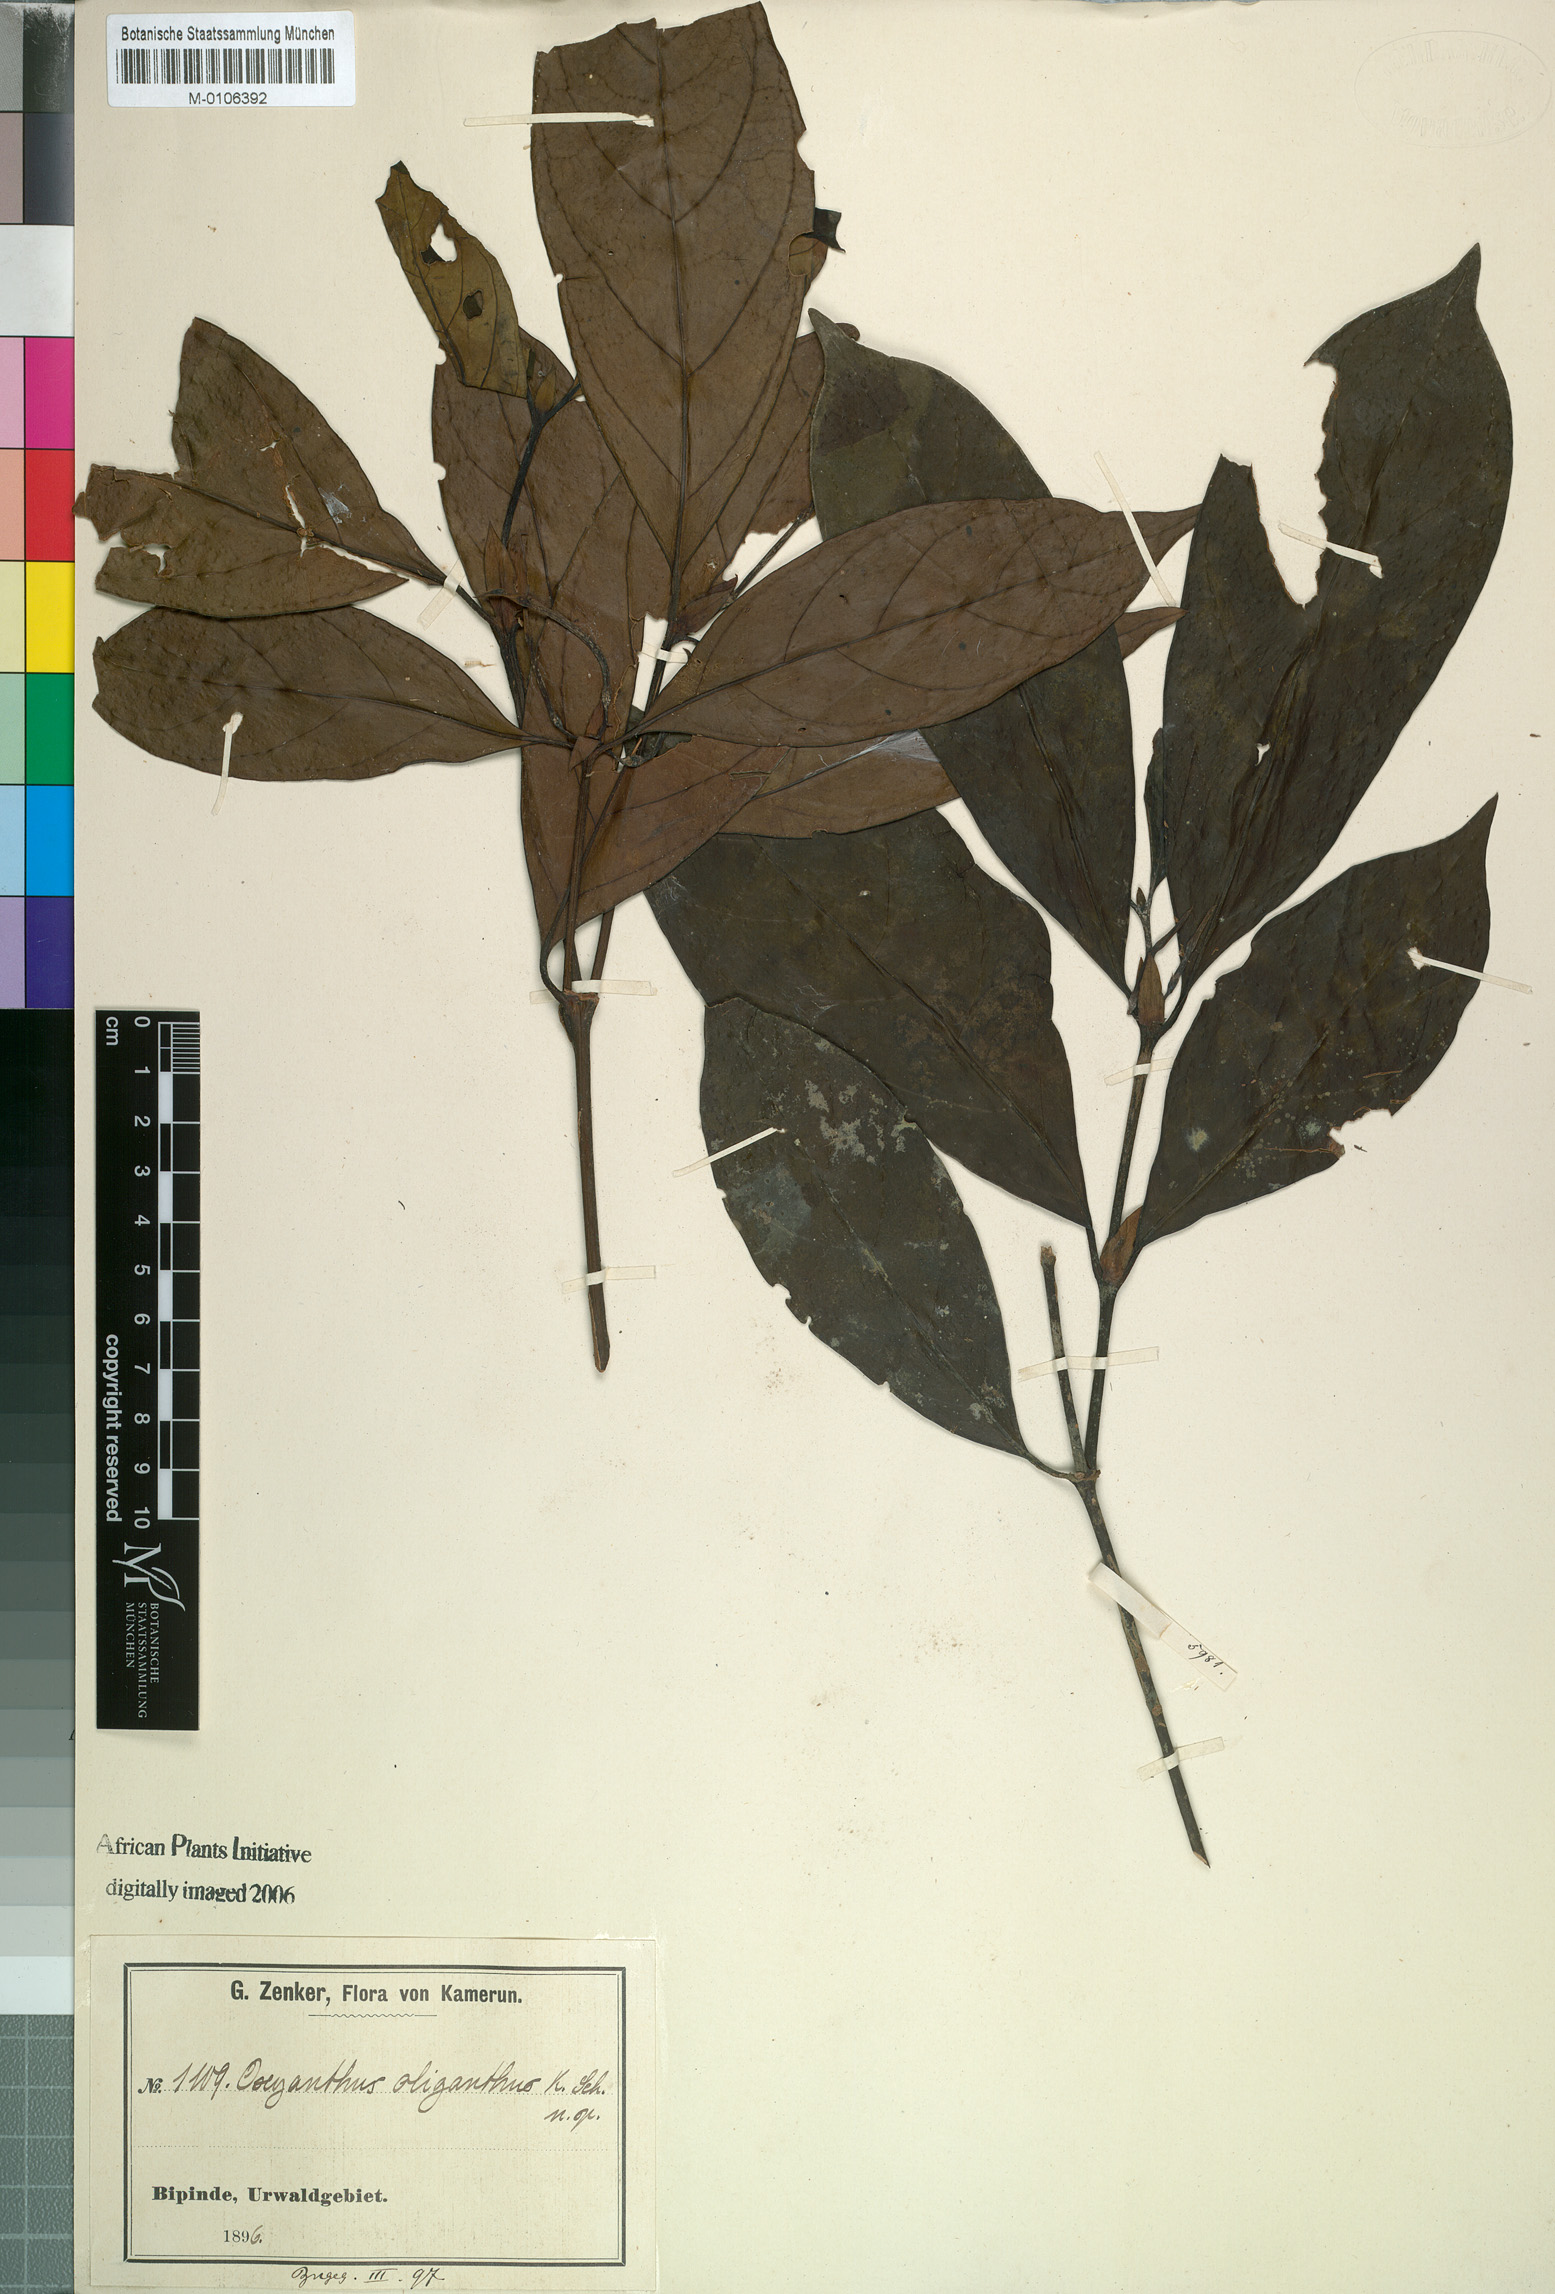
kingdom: Plantae
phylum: Tracheophyta
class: Magnoliopsida
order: Gentianales
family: Rubiaceae
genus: Oxyanthus
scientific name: Oxyanthus oliganthus
